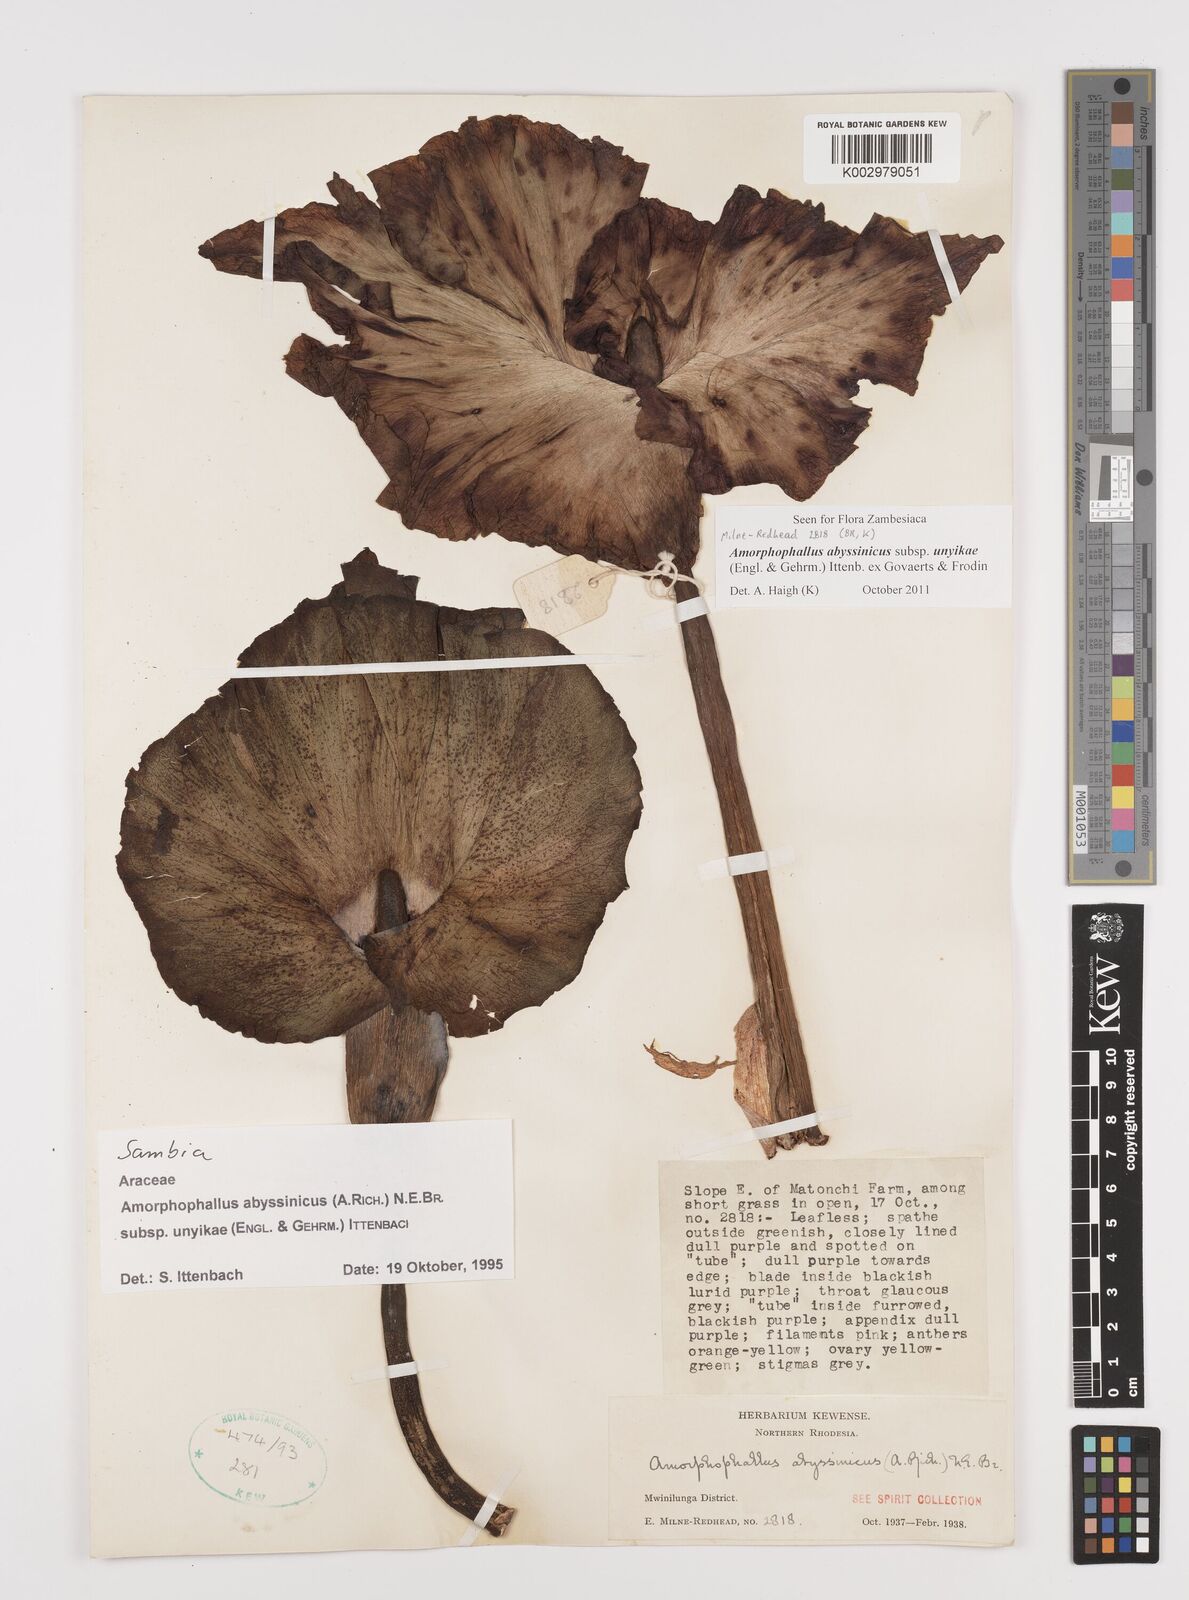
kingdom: Plantae
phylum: Tracheophyta
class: Liliopsida
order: Alismatales
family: Araceae
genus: Amorphophallus
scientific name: Amorphophallus abyssinicus
